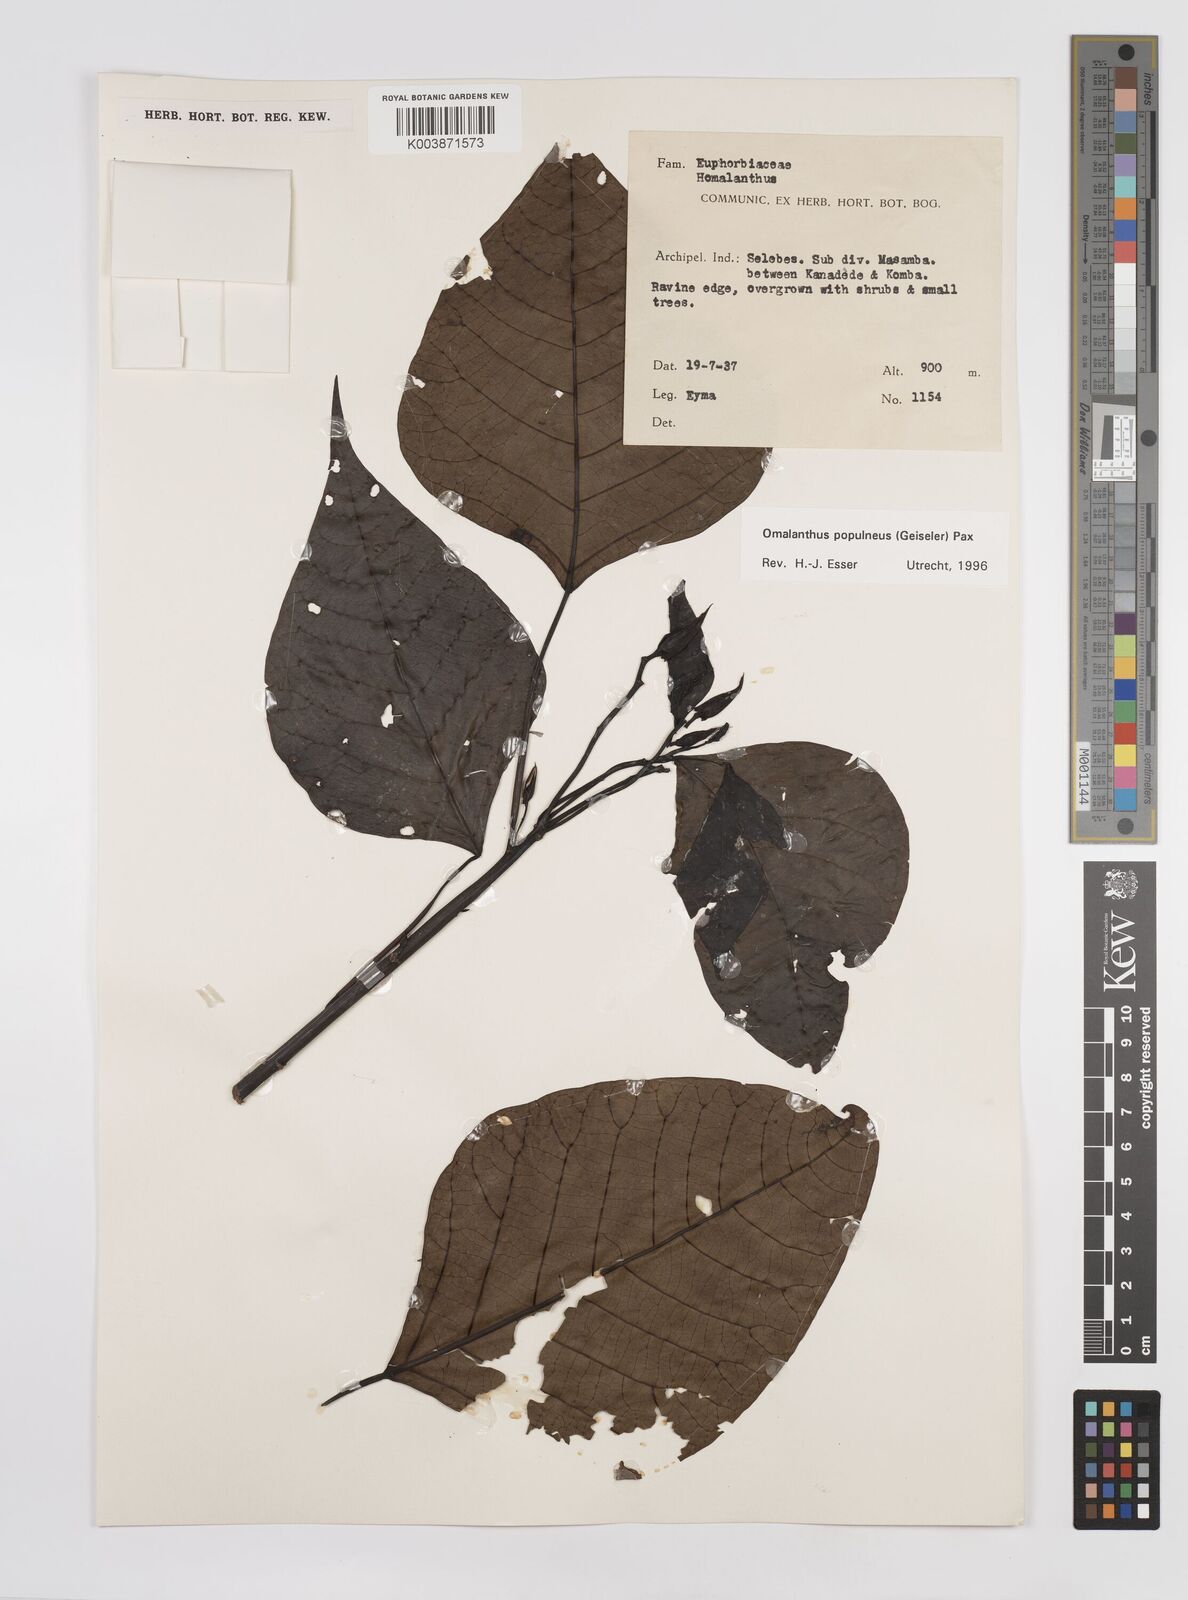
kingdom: Plantae
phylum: Tracheophyta
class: Magnoliopsida
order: Malpighiales
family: Euphorbiaceae
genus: Homalanthus
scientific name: Homalanthus populneus
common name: Spurge
